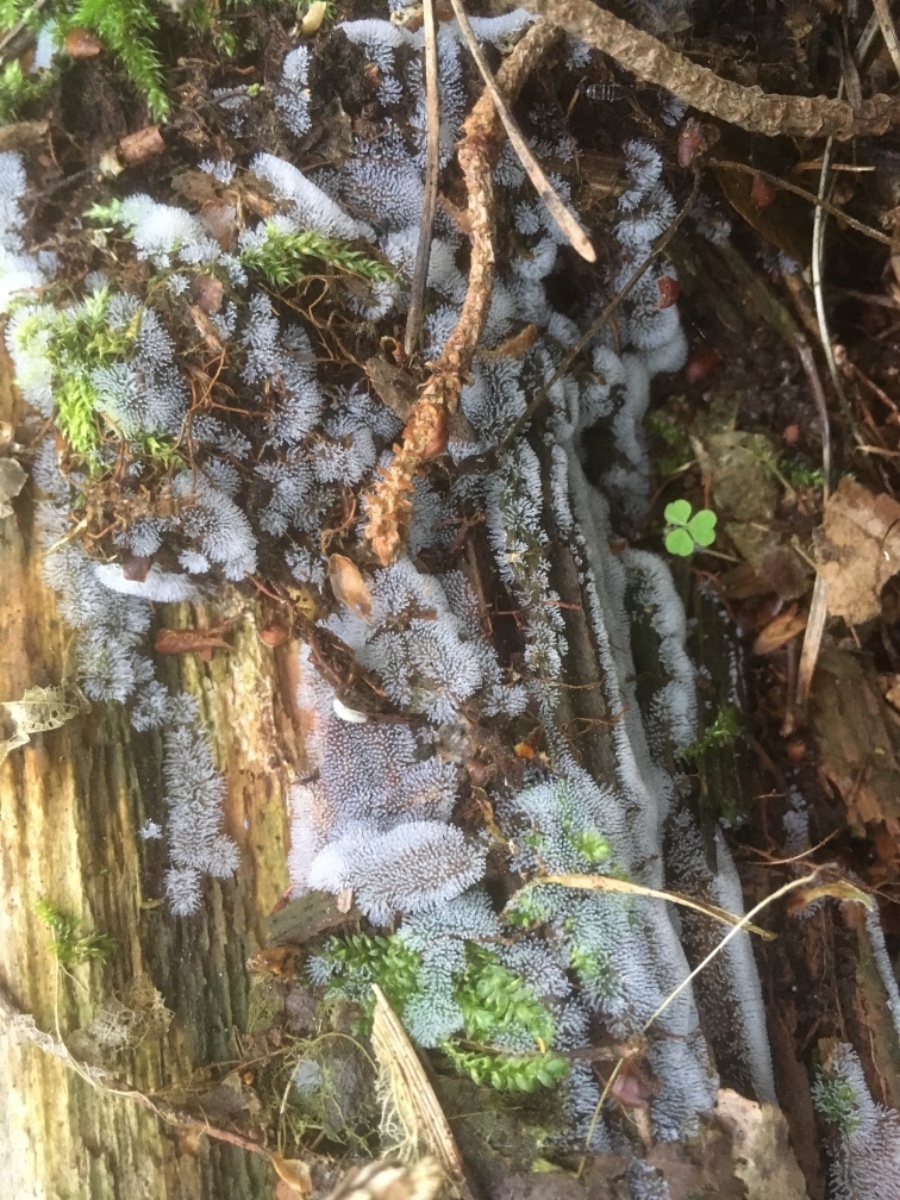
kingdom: Protozoa
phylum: Mycetozoa
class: Protosteliomycetes
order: Ceratiomyxales
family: Ceratiomyxaceae
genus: Ceratiomyxa
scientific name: Ceratiomyxa fruticulosa
